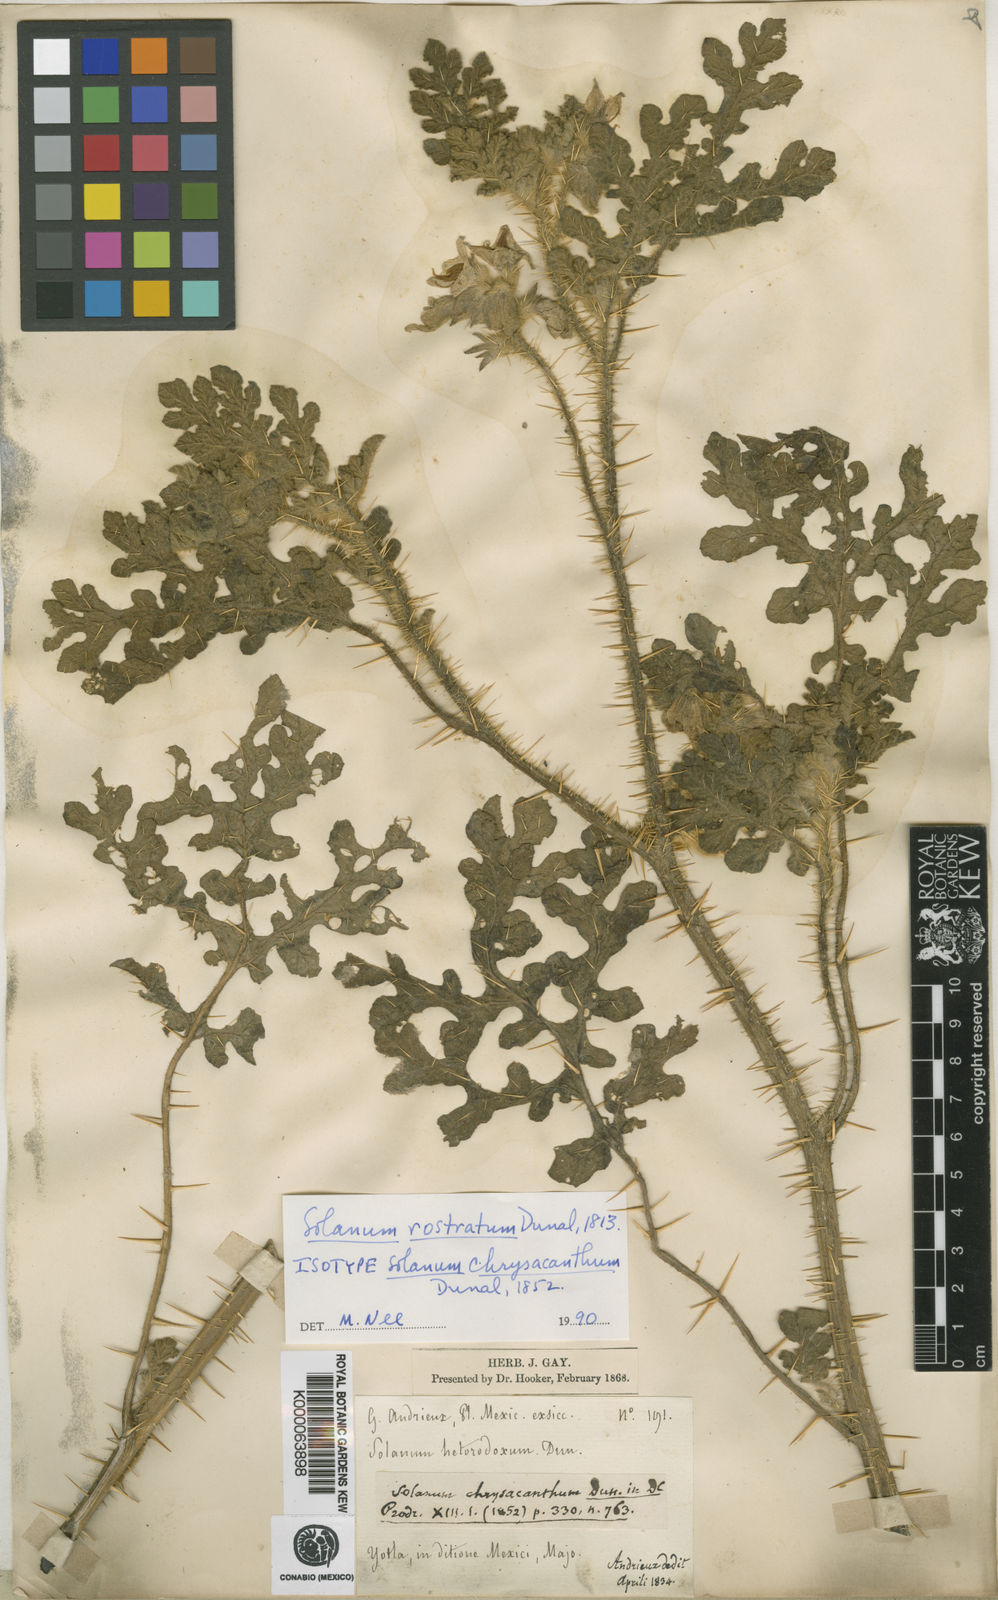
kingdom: Plantae
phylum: Tracheophyta
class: Magnoliopsida
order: Solanales
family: Solanaceae
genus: Solanum
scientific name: Solanum angustifolium
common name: Buffalobur nightshade
